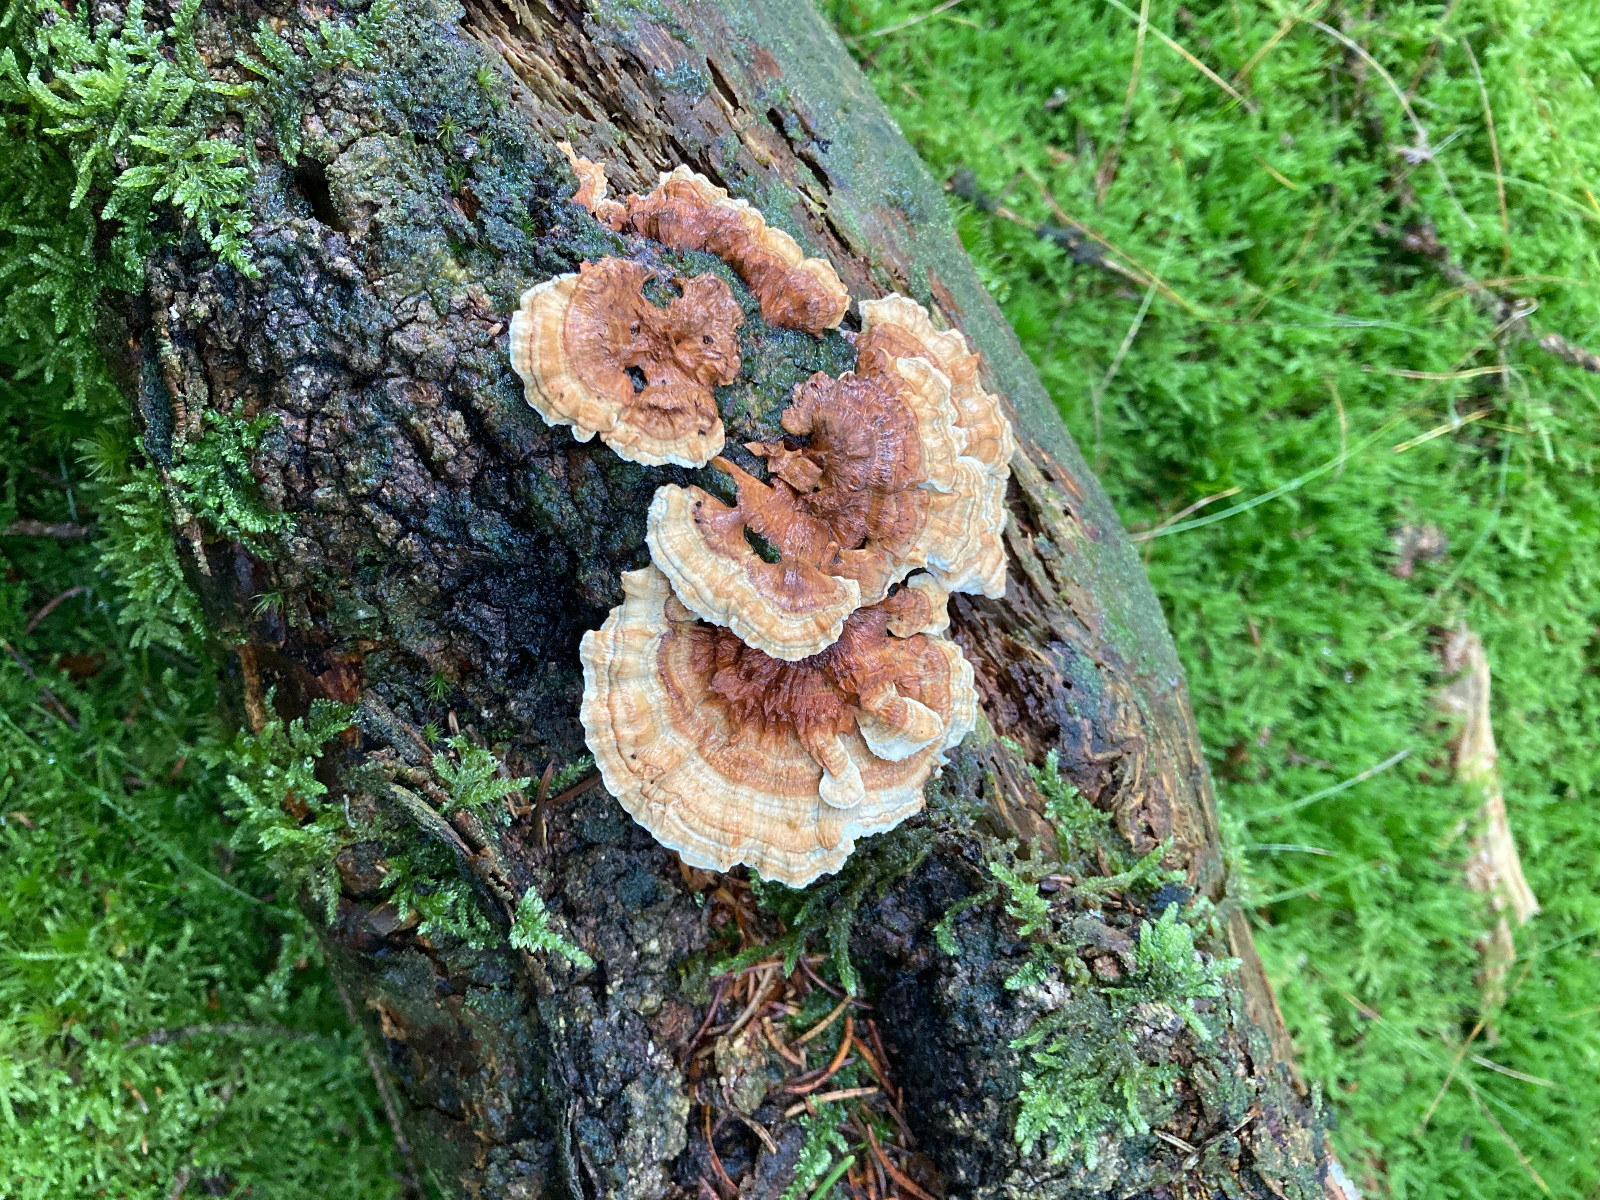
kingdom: Fungi
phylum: Basidiomycota
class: Agaricomycetes
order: Polyporales
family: Dacryobolaceae
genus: Oligoporus
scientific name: Oligoporus wakefieldiae
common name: række-kødporesvamp
